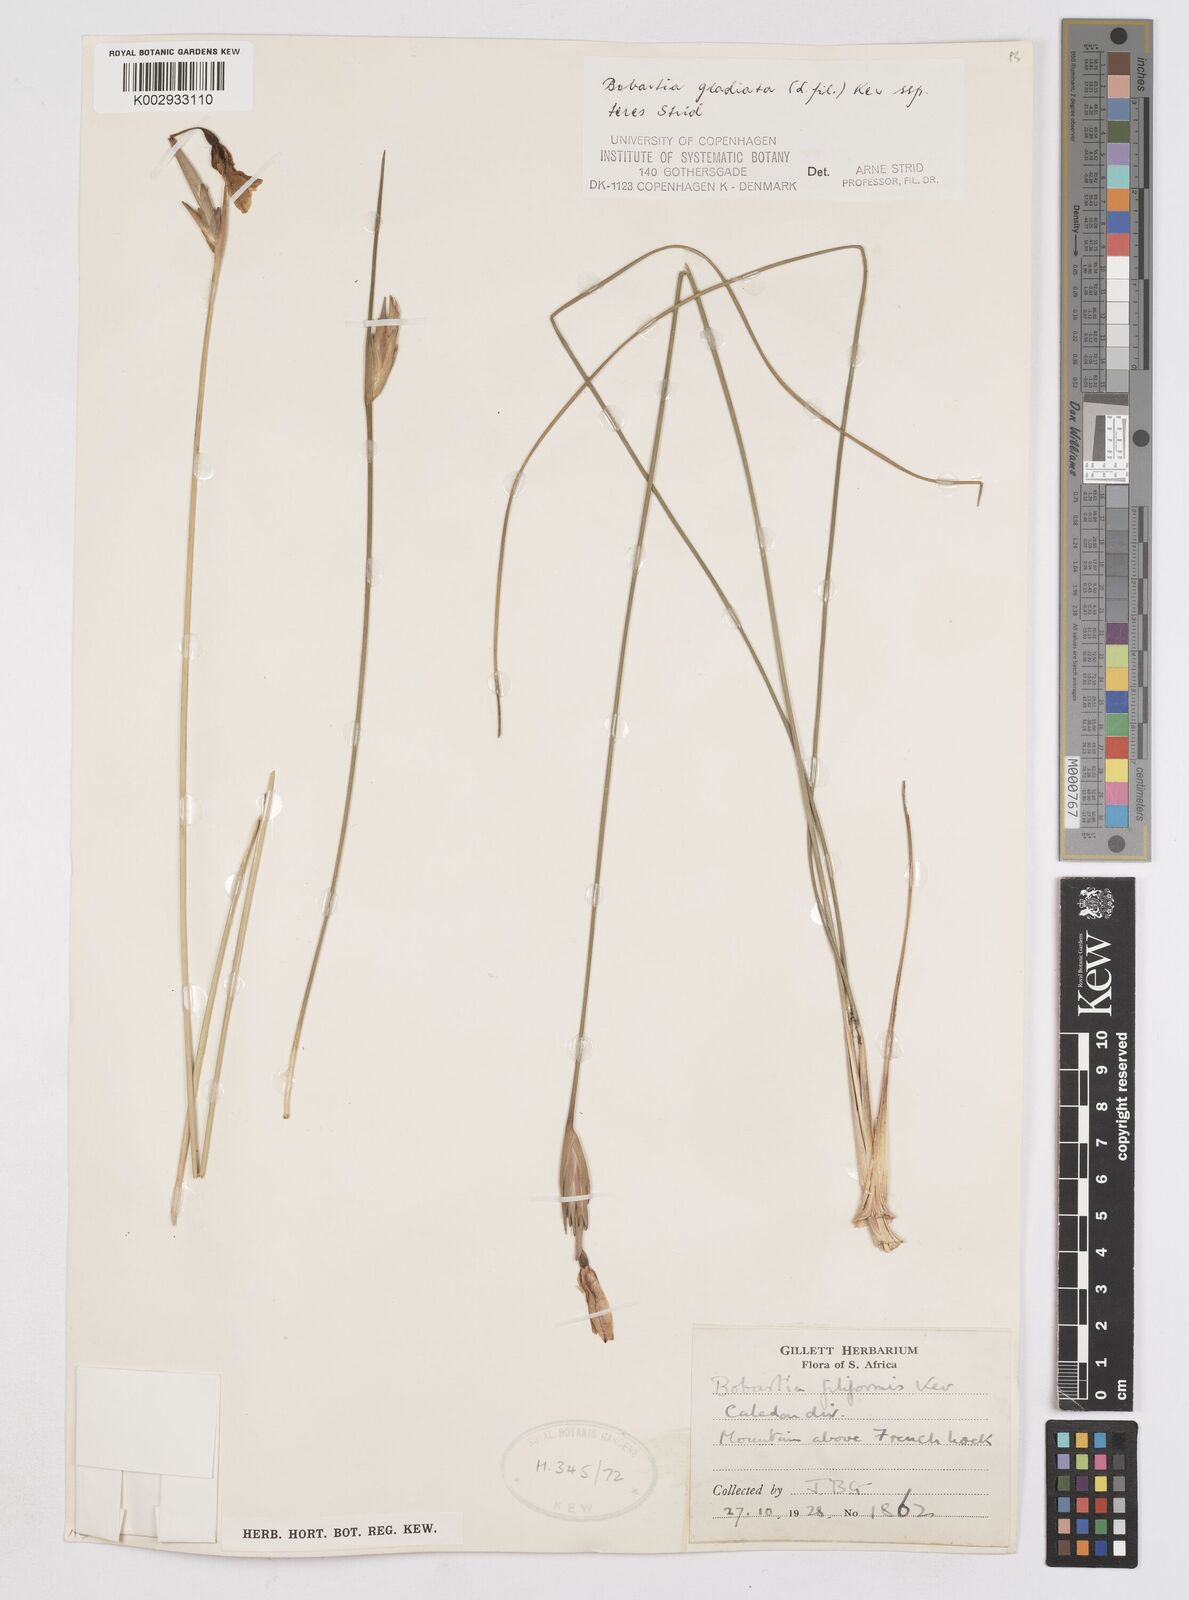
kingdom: Plantae
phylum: Tracheophyta
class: Liliopsida
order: Asparagales
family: Iridaceae
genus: Bobartia
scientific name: Bobartia gladiata
